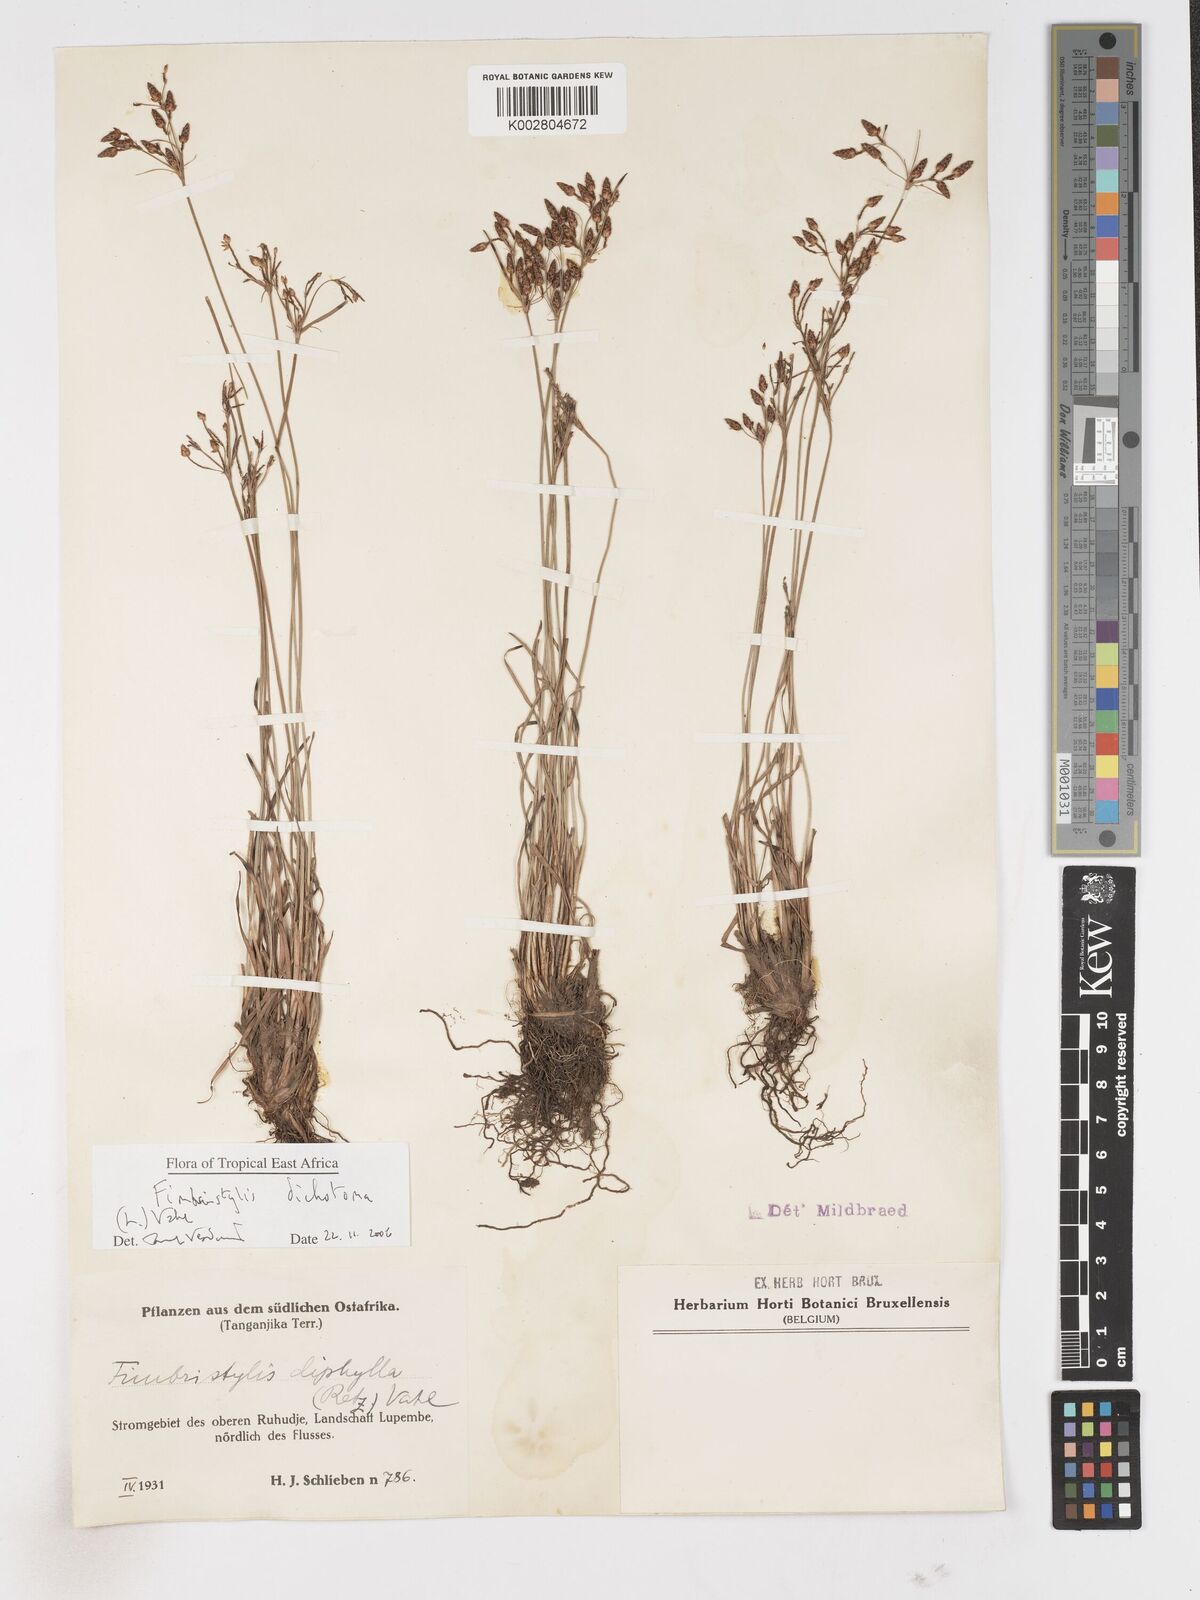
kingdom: Plantae
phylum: Tracheophyta
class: Liliopsida
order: Poales
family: Cyperaceae
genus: Fimbristylis
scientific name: Fimbristylis dichotoma
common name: Forked fimbry
